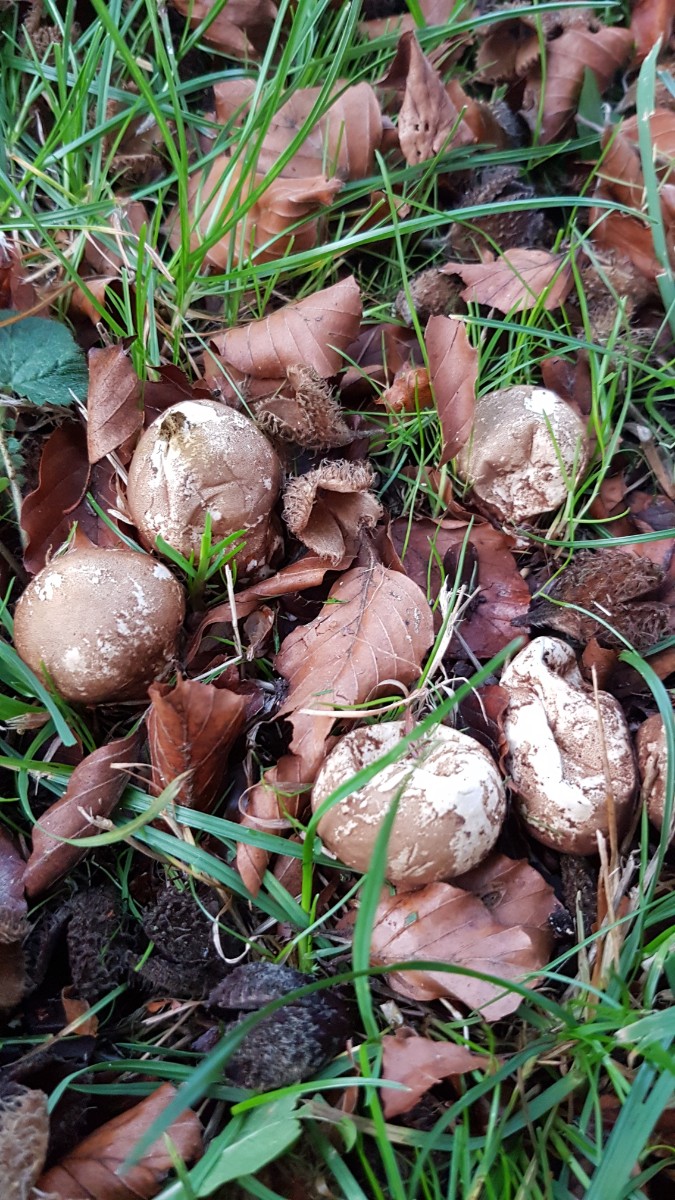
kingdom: Fungi
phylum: Basidiomycota
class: Agaricomycetes
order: Agaricales
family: Lycoperdaceae
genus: Apioperdon
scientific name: Apioperdon pyriforme
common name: pære-støvbold
